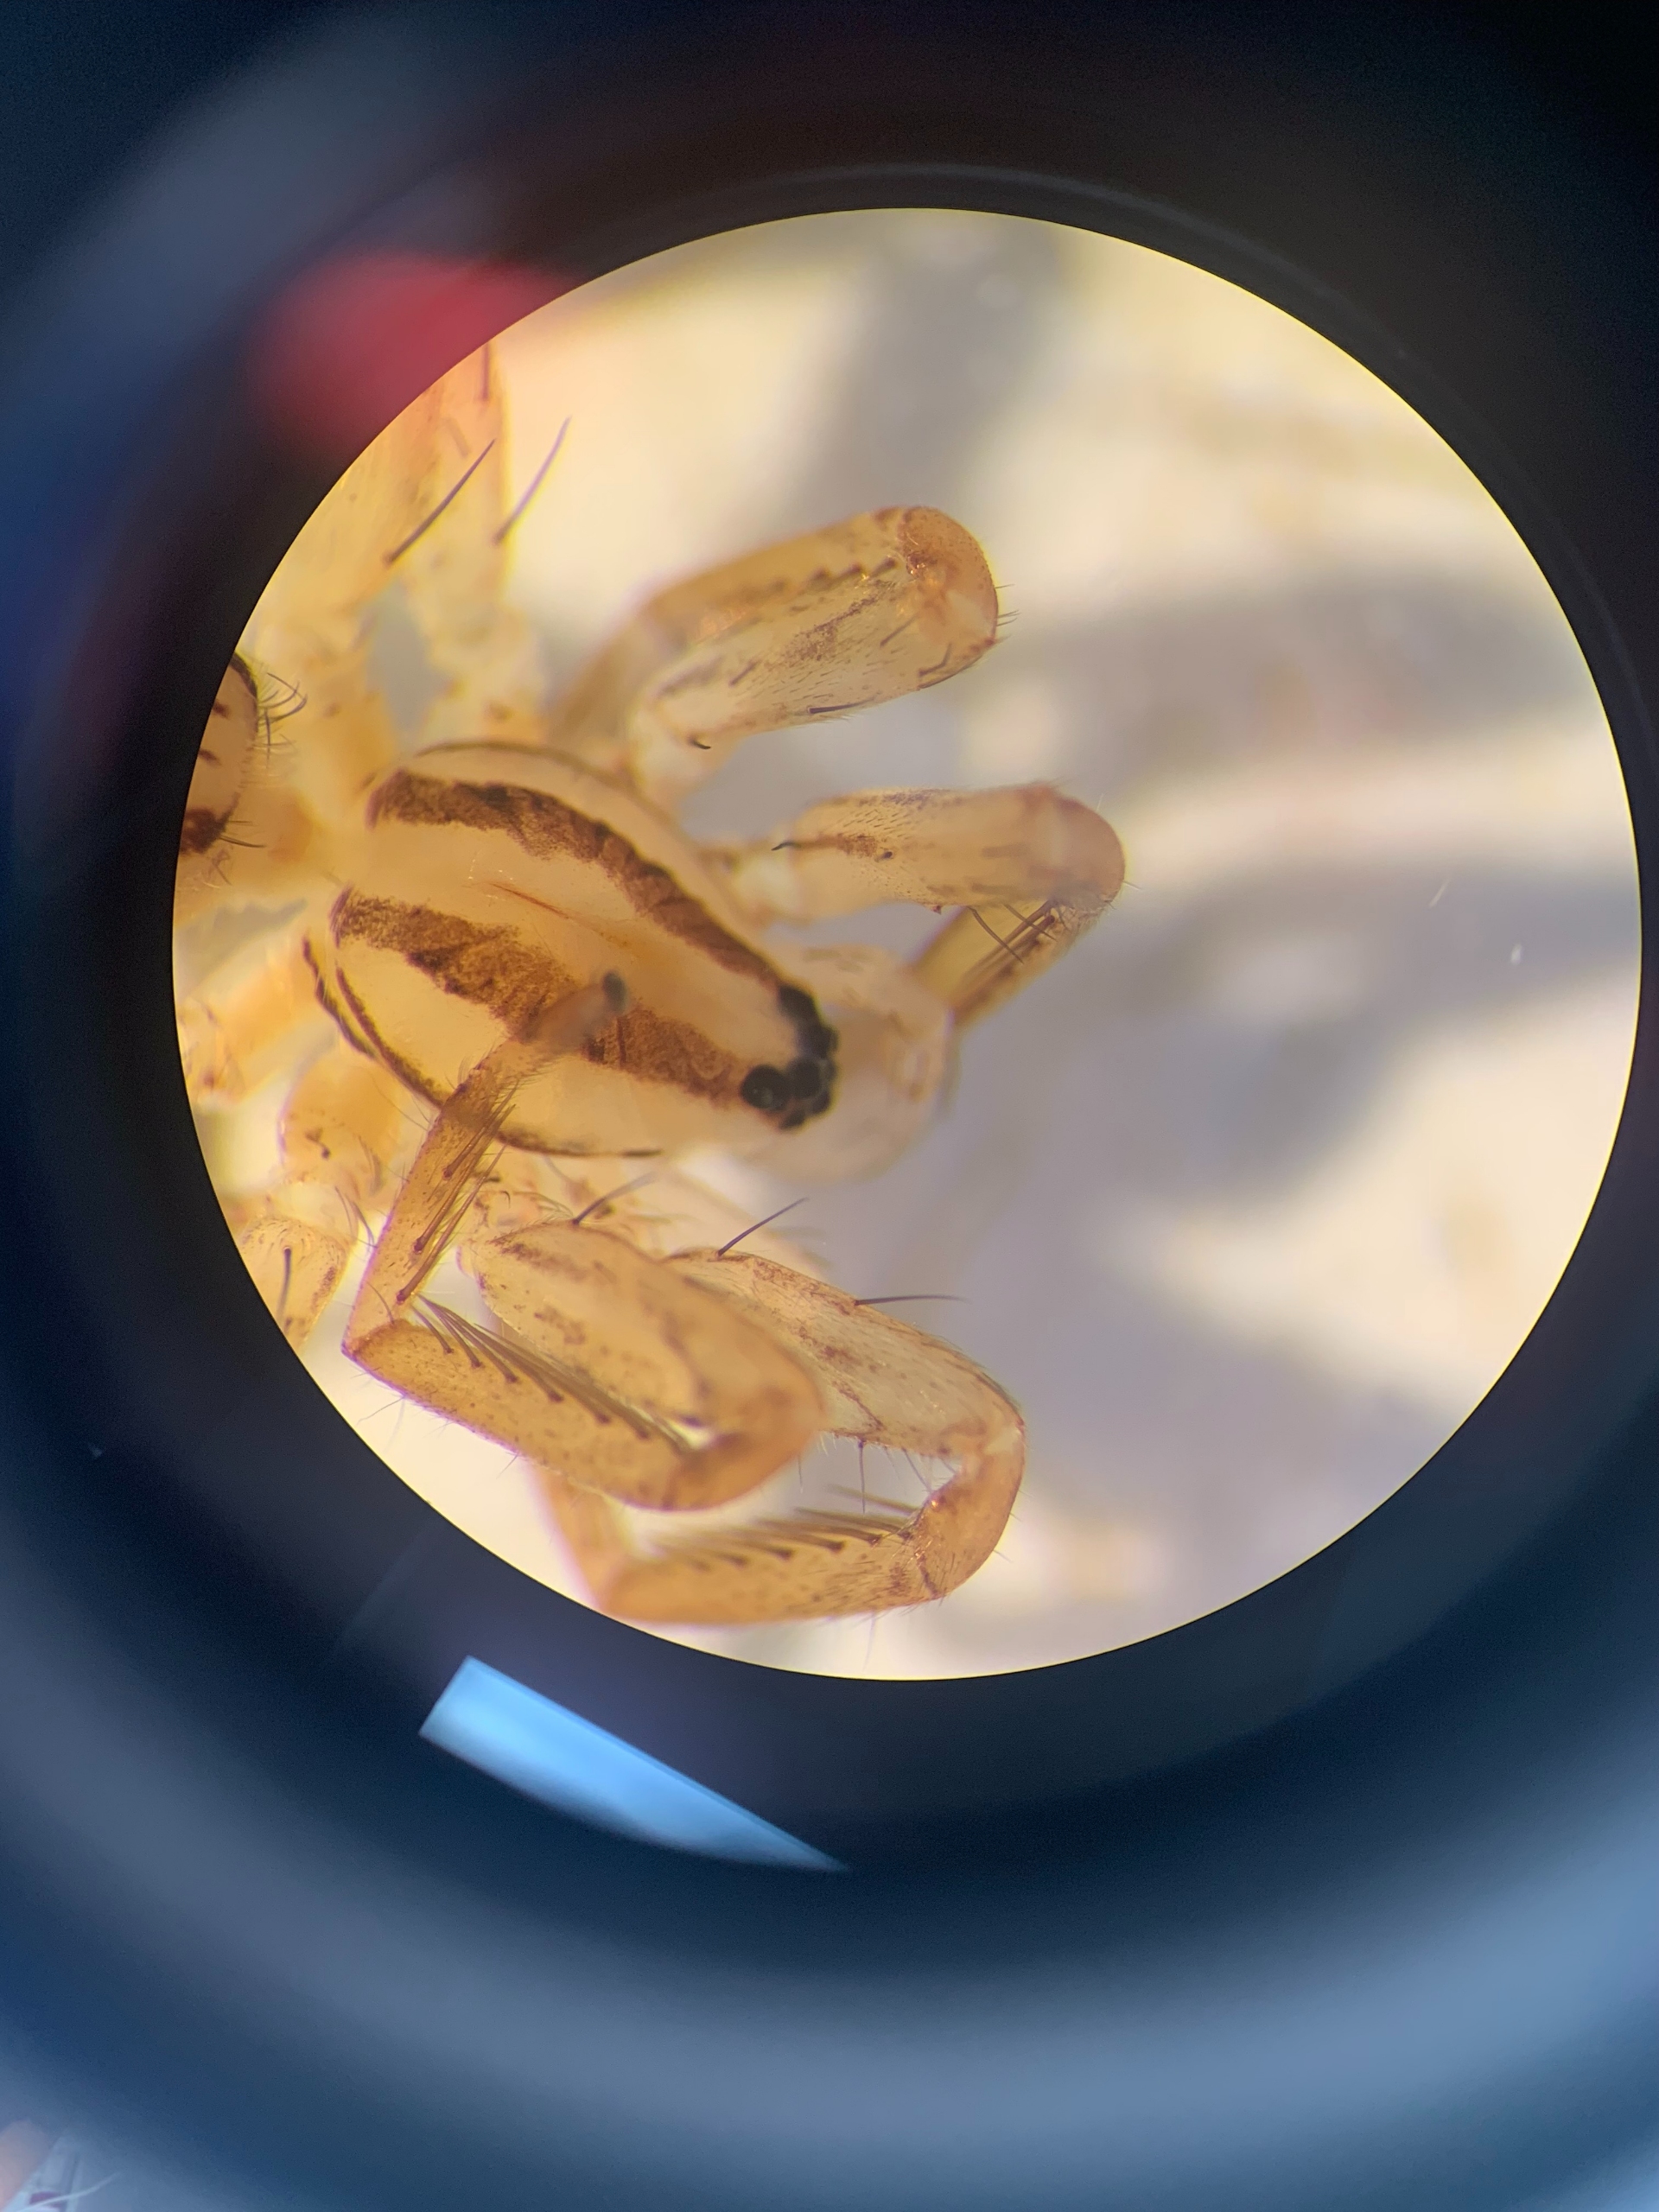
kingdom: Animalia
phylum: Arthropoda
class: Arachnida
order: Araneae
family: Miturgidae
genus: Zora
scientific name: Zora spinimana
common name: Katteedderkop
